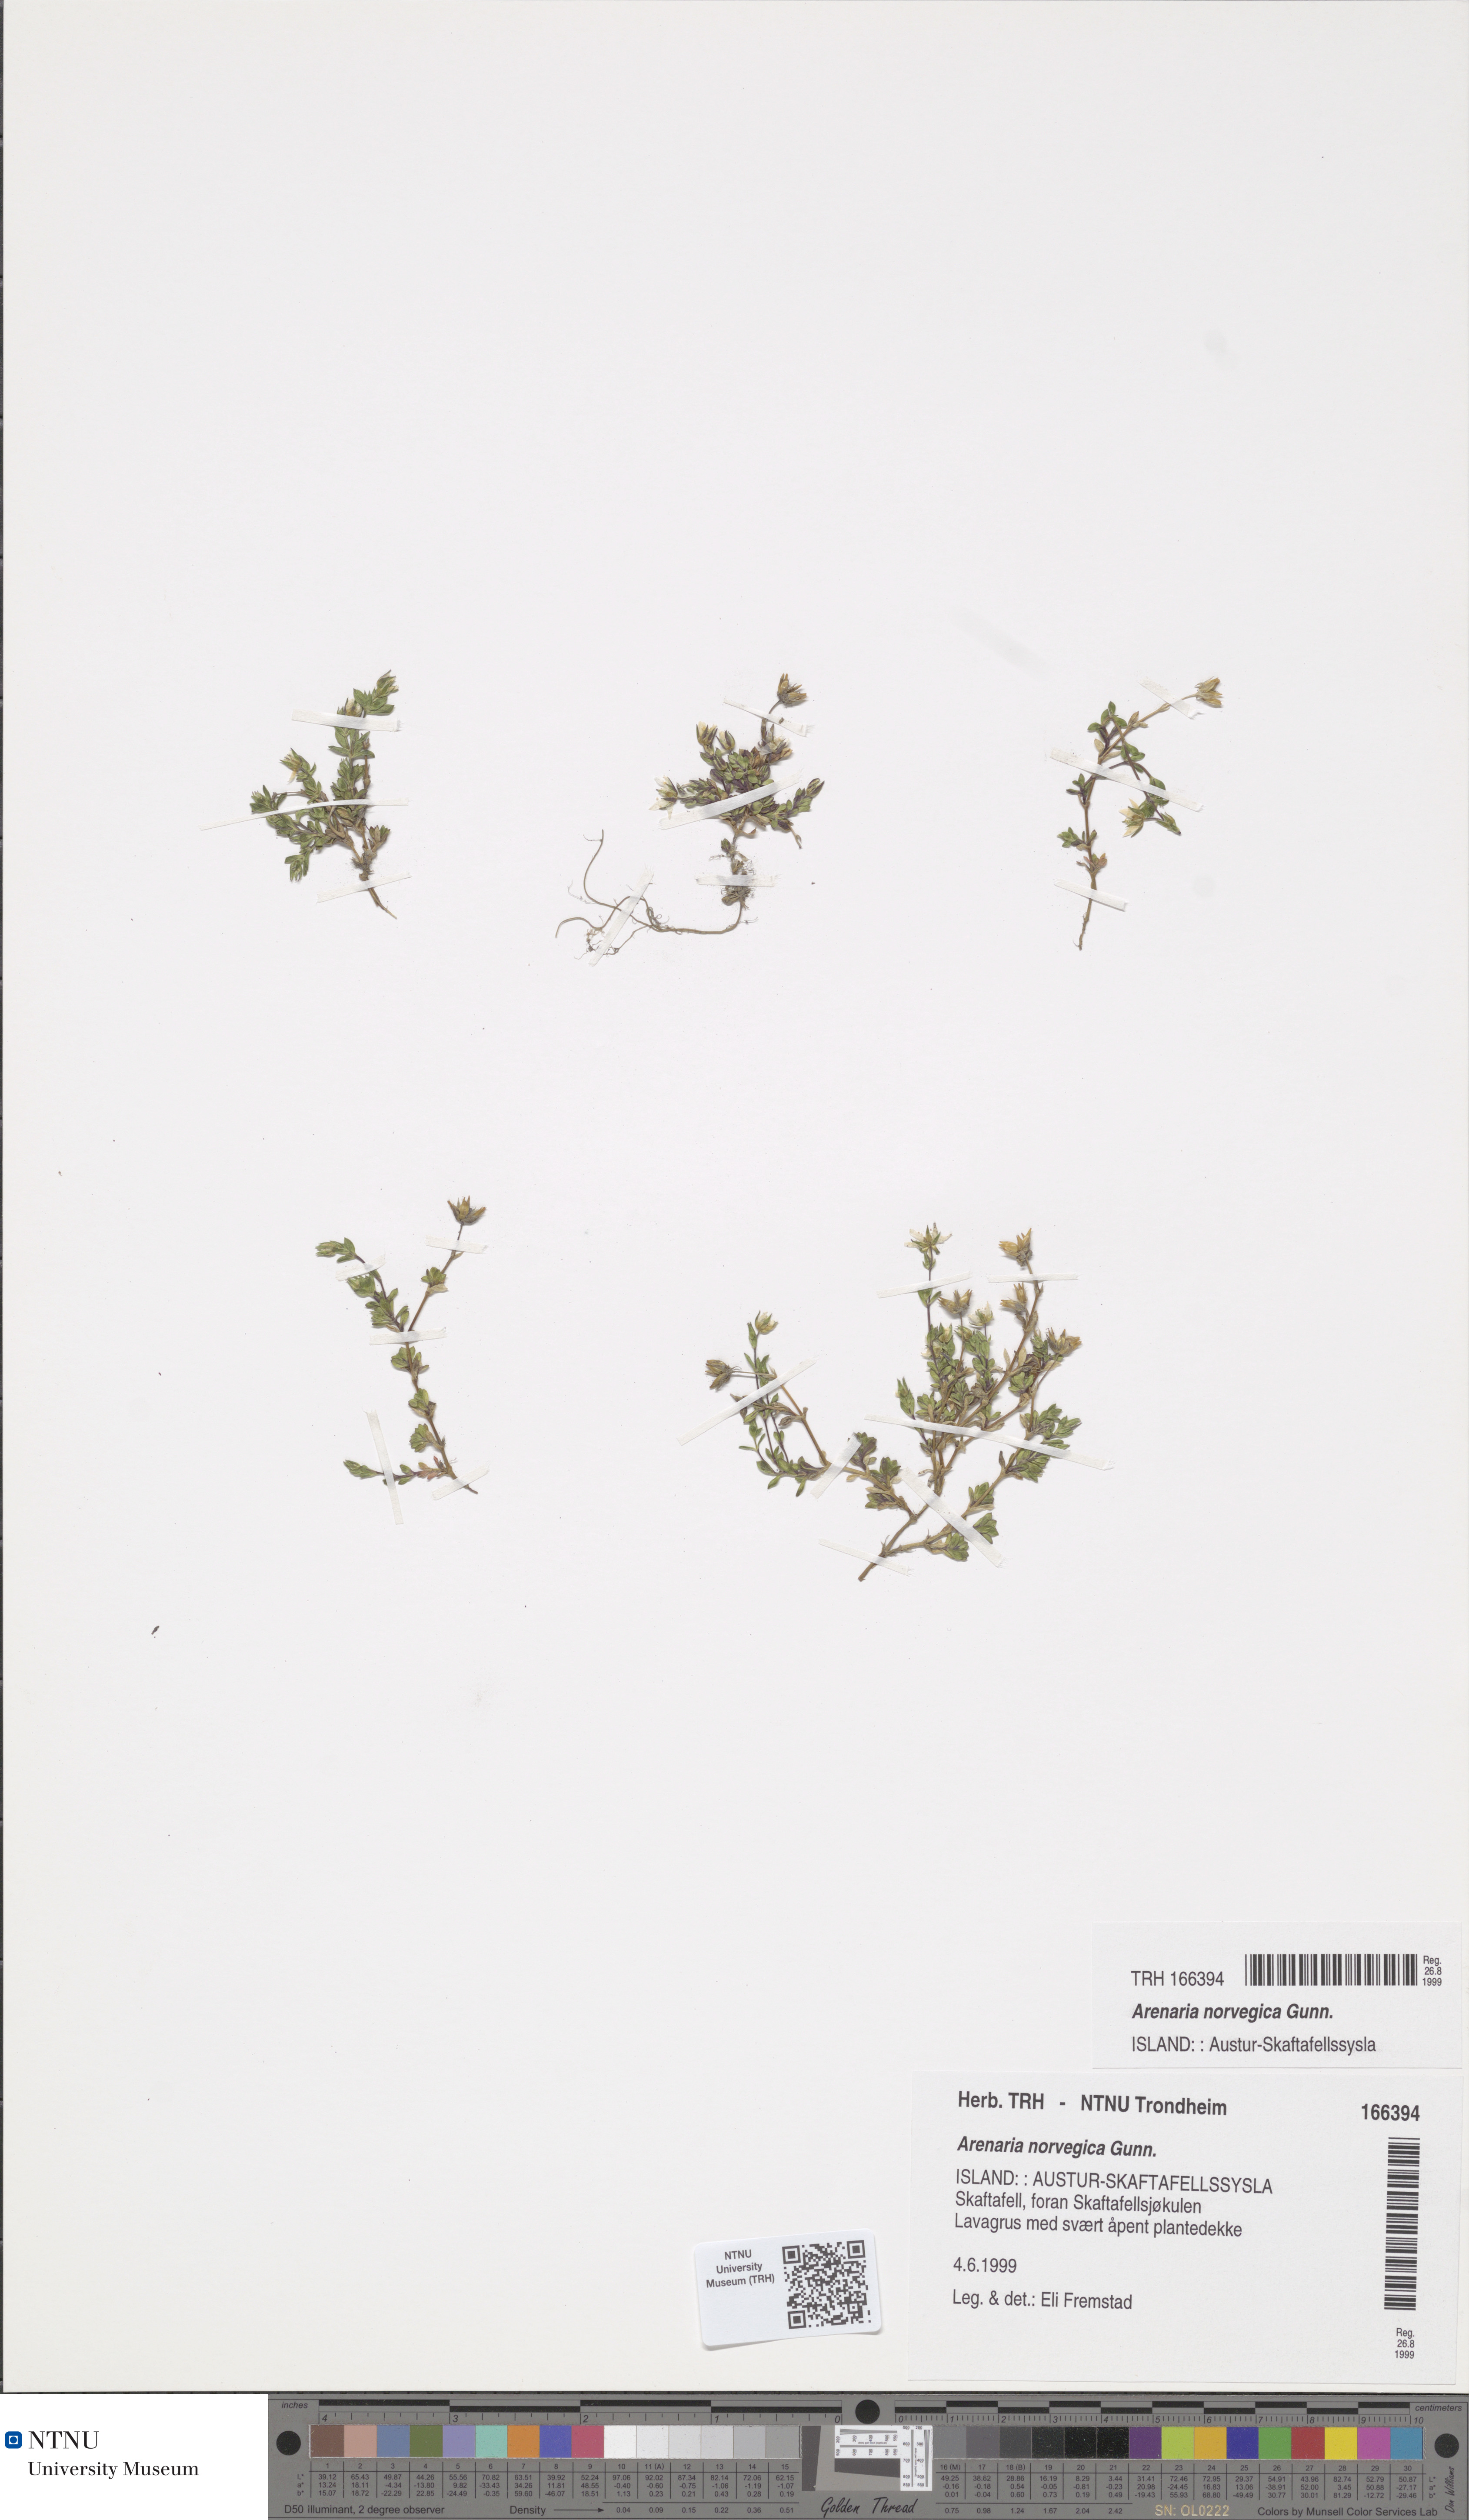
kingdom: Plantae
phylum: Tracheophyta
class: Magnoliopsida
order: Caryophyllales
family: Caryophyllaceae
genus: Arenaria
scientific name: Arenaria norvegica
